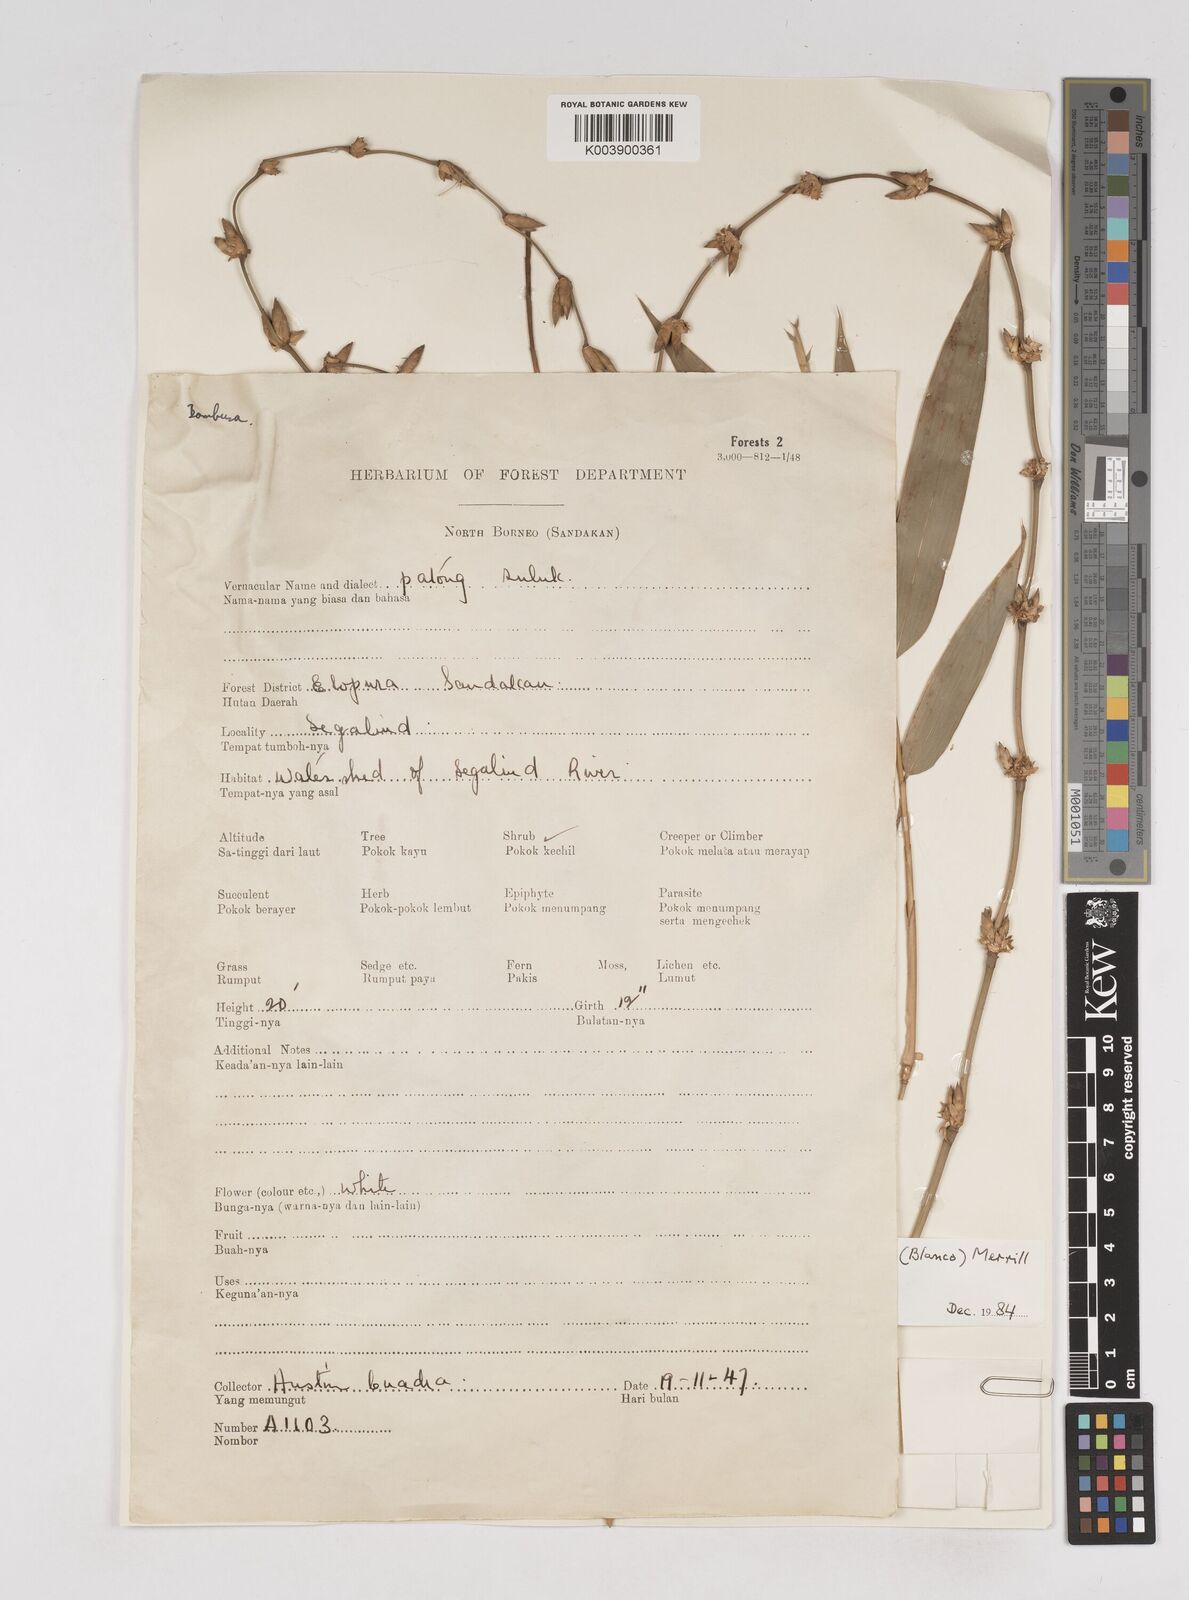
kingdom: Plantae
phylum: Tracheophyta
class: Liliopsida
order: Poales
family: Poaceae
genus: Gigantochloa
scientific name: Gigantochloa levis
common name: Smooth-shoot gigantochloa
